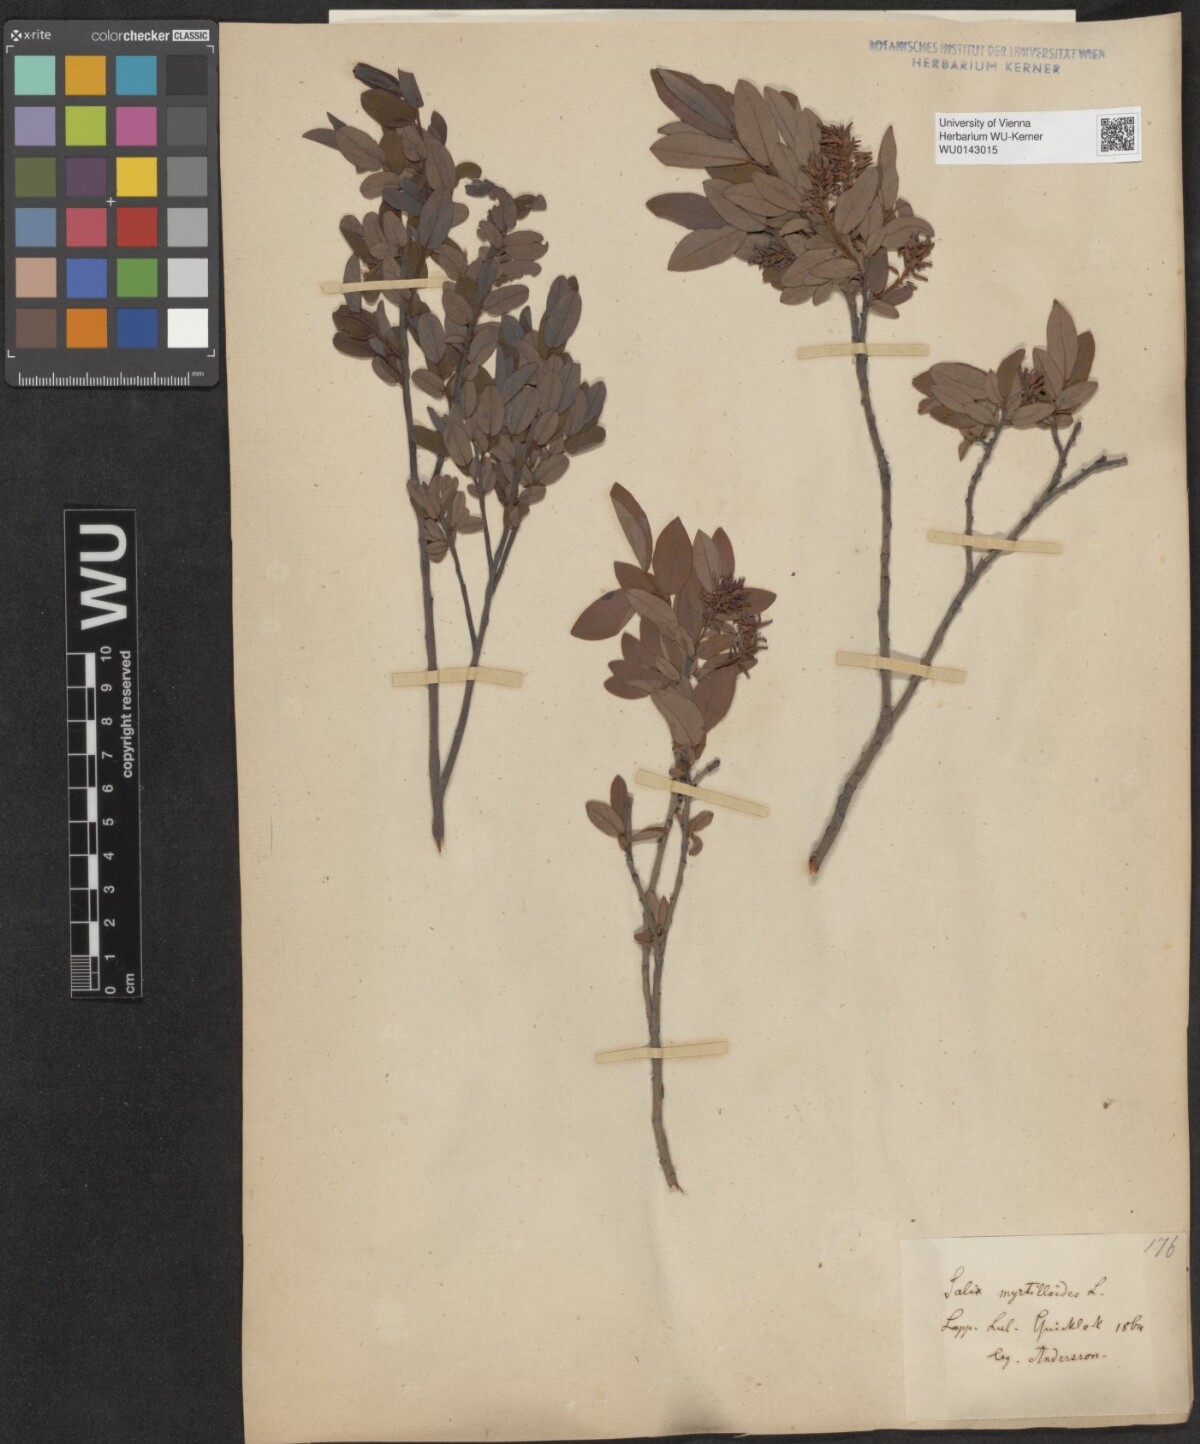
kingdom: Plantae
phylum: Tracheophyta
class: Magnoliopsida
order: Malpighiales
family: Salicaceae
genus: Salix
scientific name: Salix myrtilloides
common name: Myrtle-leaved willow
